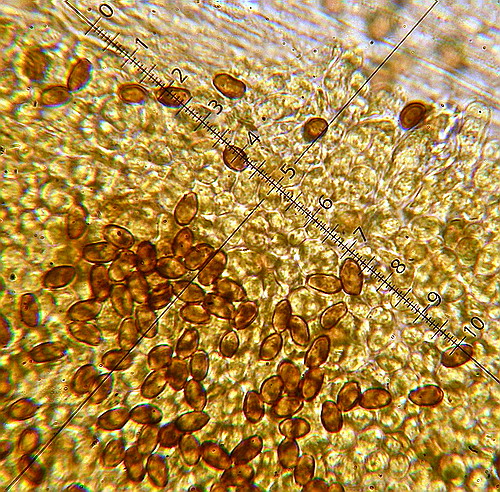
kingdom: Fungi
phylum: Basidiomycota
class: Agaricomycetes
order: Agaricales
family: Psathyrellaceae
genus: Homophron
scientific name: Homophron cernuum
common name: hvidlig mørkhat
